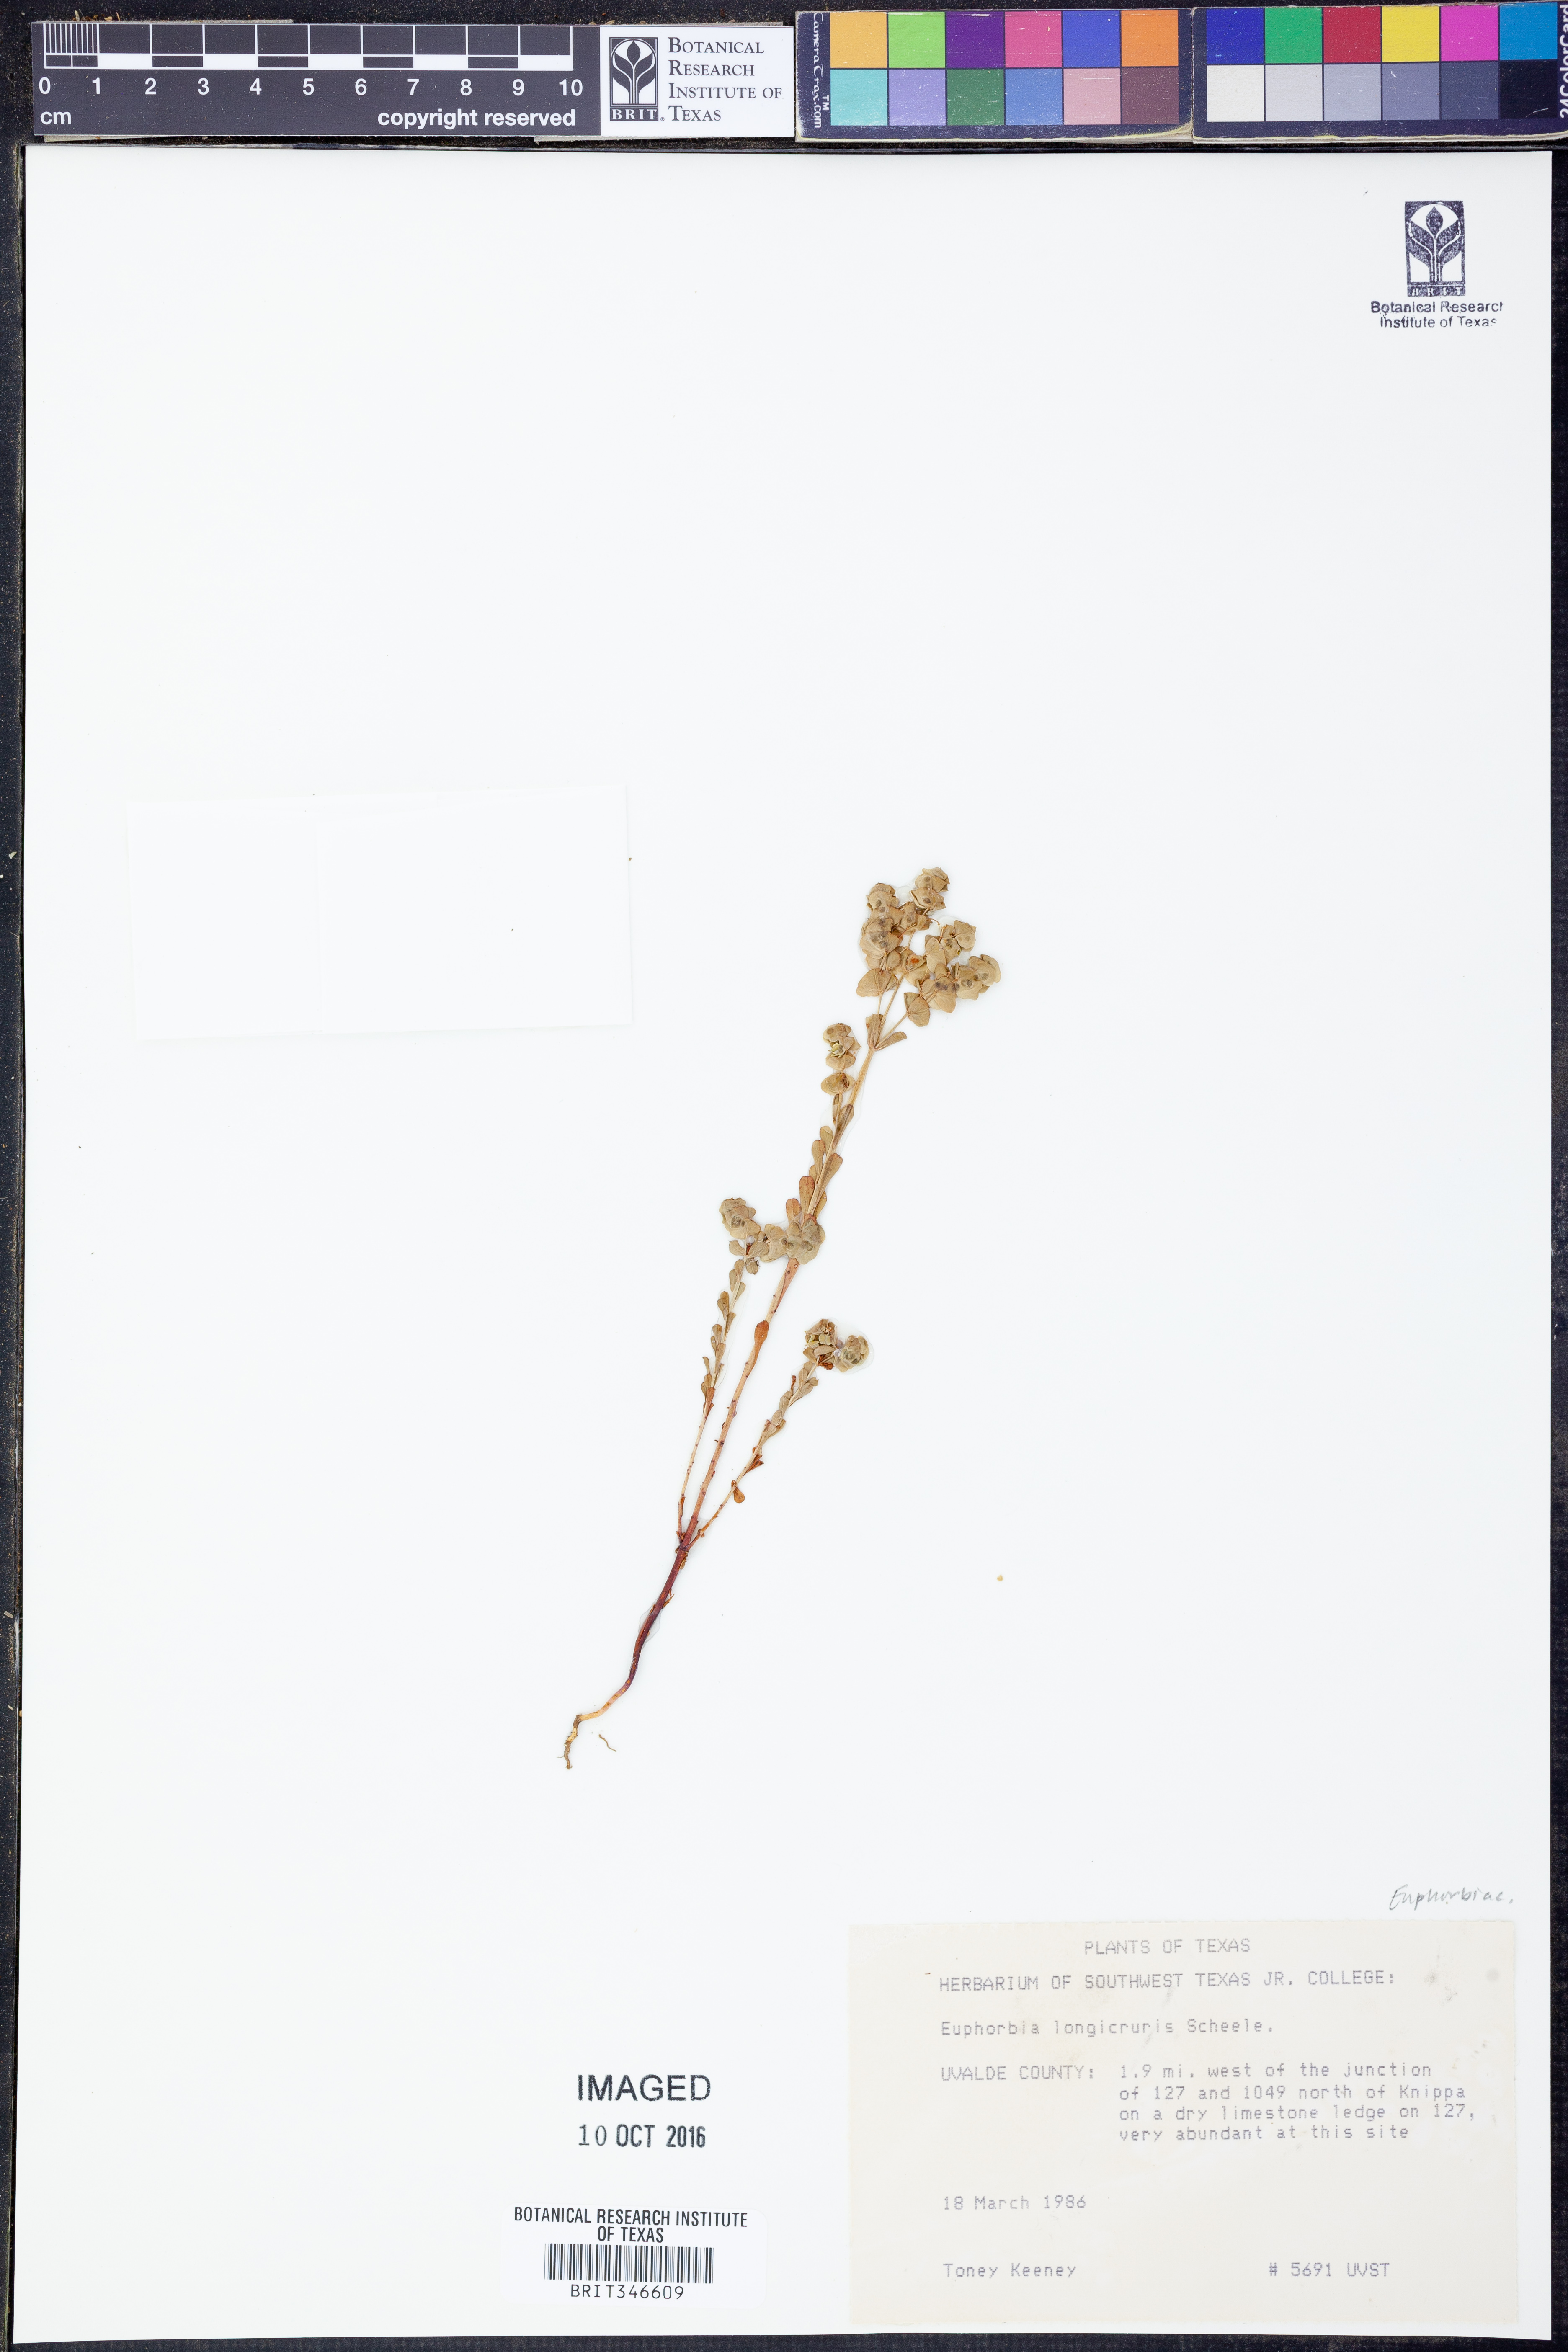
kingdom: Plantae
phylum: Tracheophyta
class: Magnoliopsida
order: Malpighiales
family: Euphorbiaceae
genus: Euphorbia
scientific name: Euphorbia longicruris
